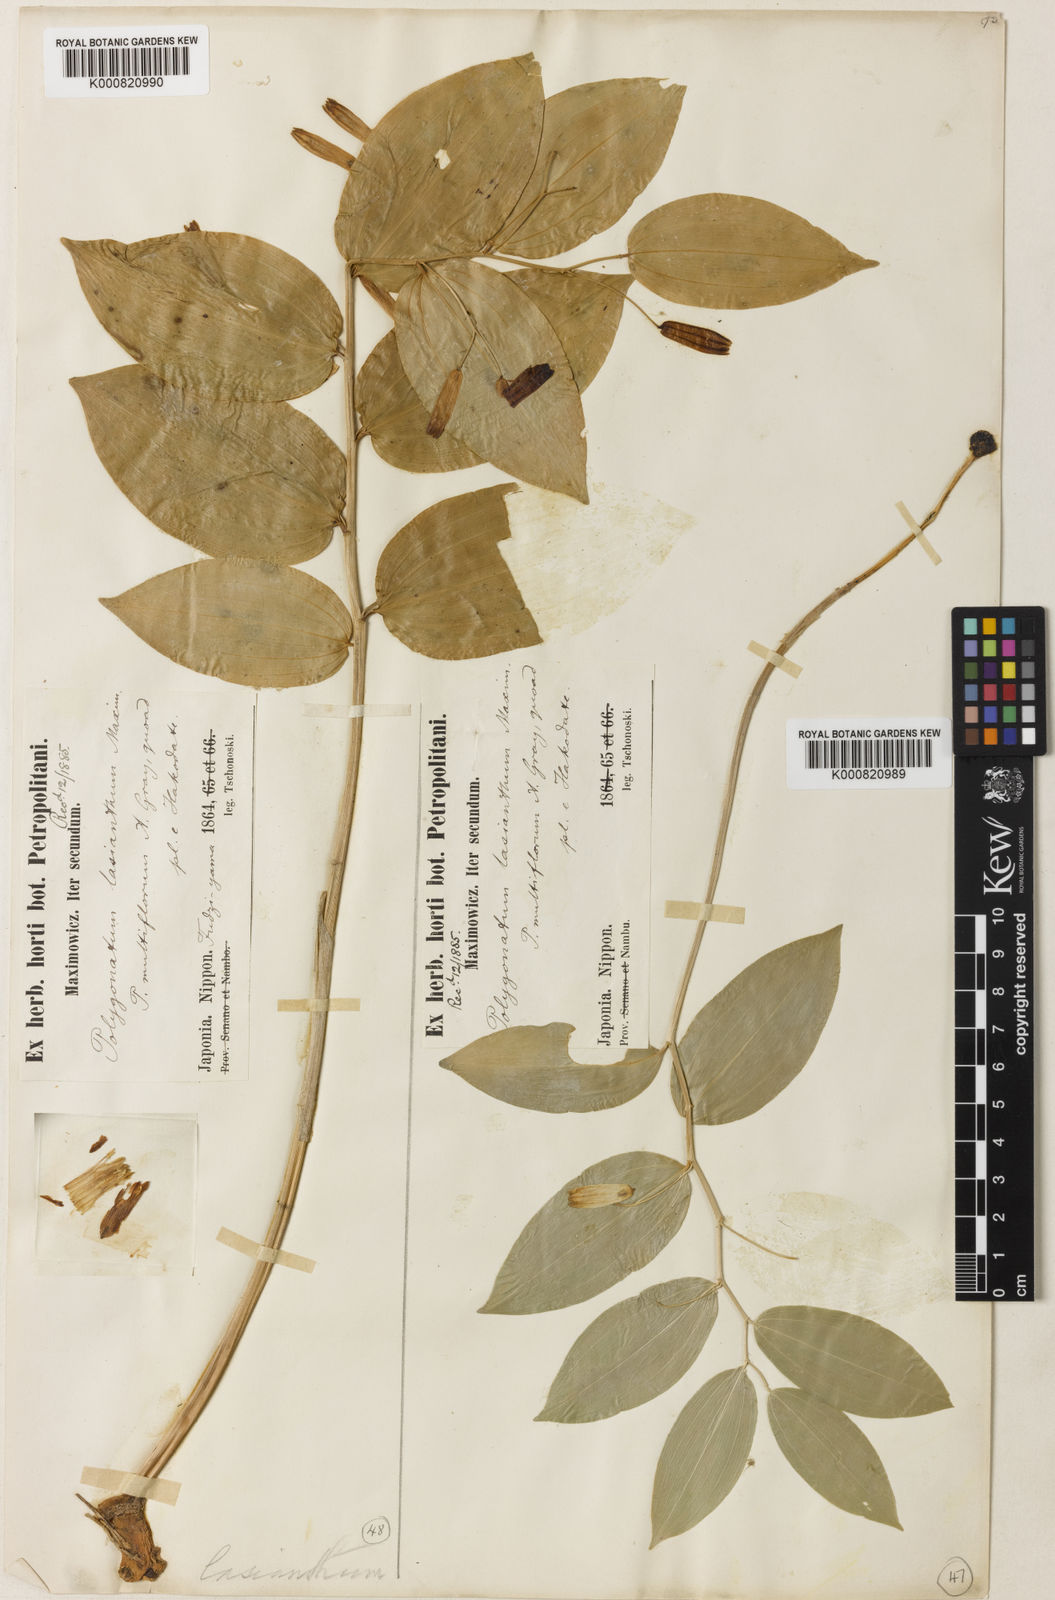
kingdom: Plantae
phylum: Tracheophyta
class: Liliopsida
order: Asparagales
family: Asparagaceae
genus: Polygonatum
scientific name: Polygonatum lasianthum
